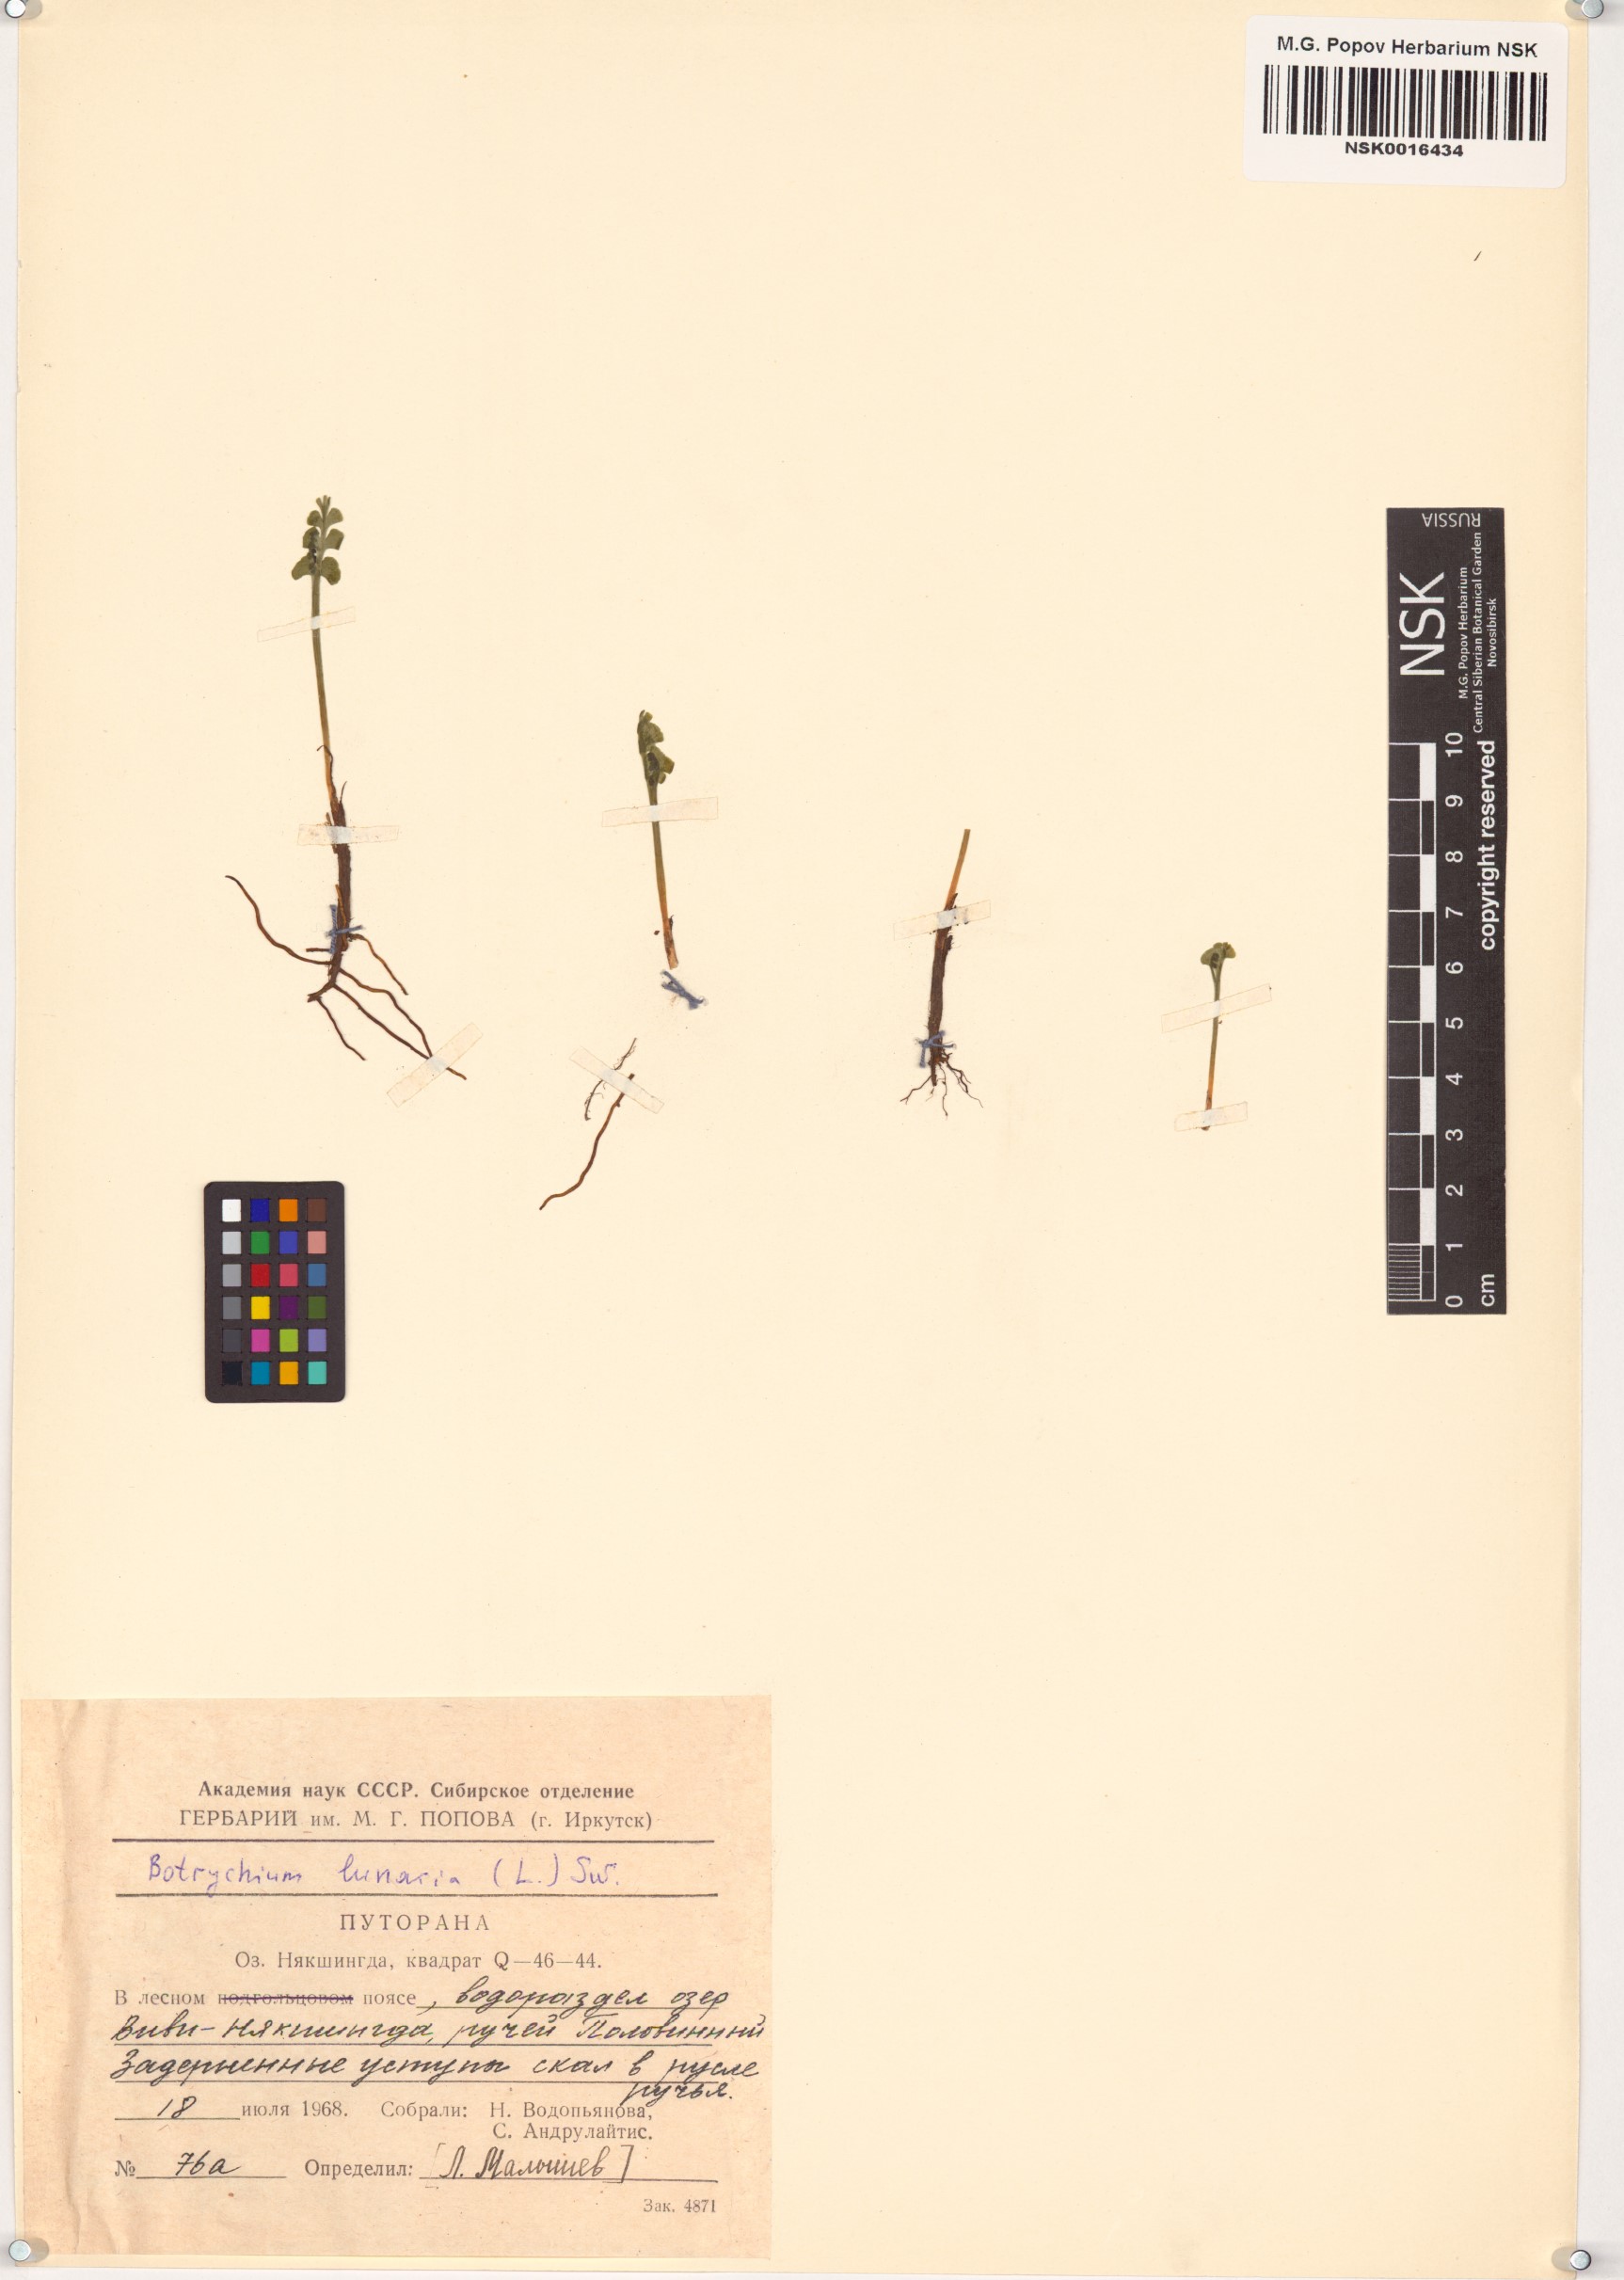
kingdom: Plantae
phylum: Tracheophyta
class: Polypodiopsida
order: Ophioglossales
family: Ophioglossaceae
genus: Botrychium
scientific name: Botrychium lunaria
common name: Moonwort
